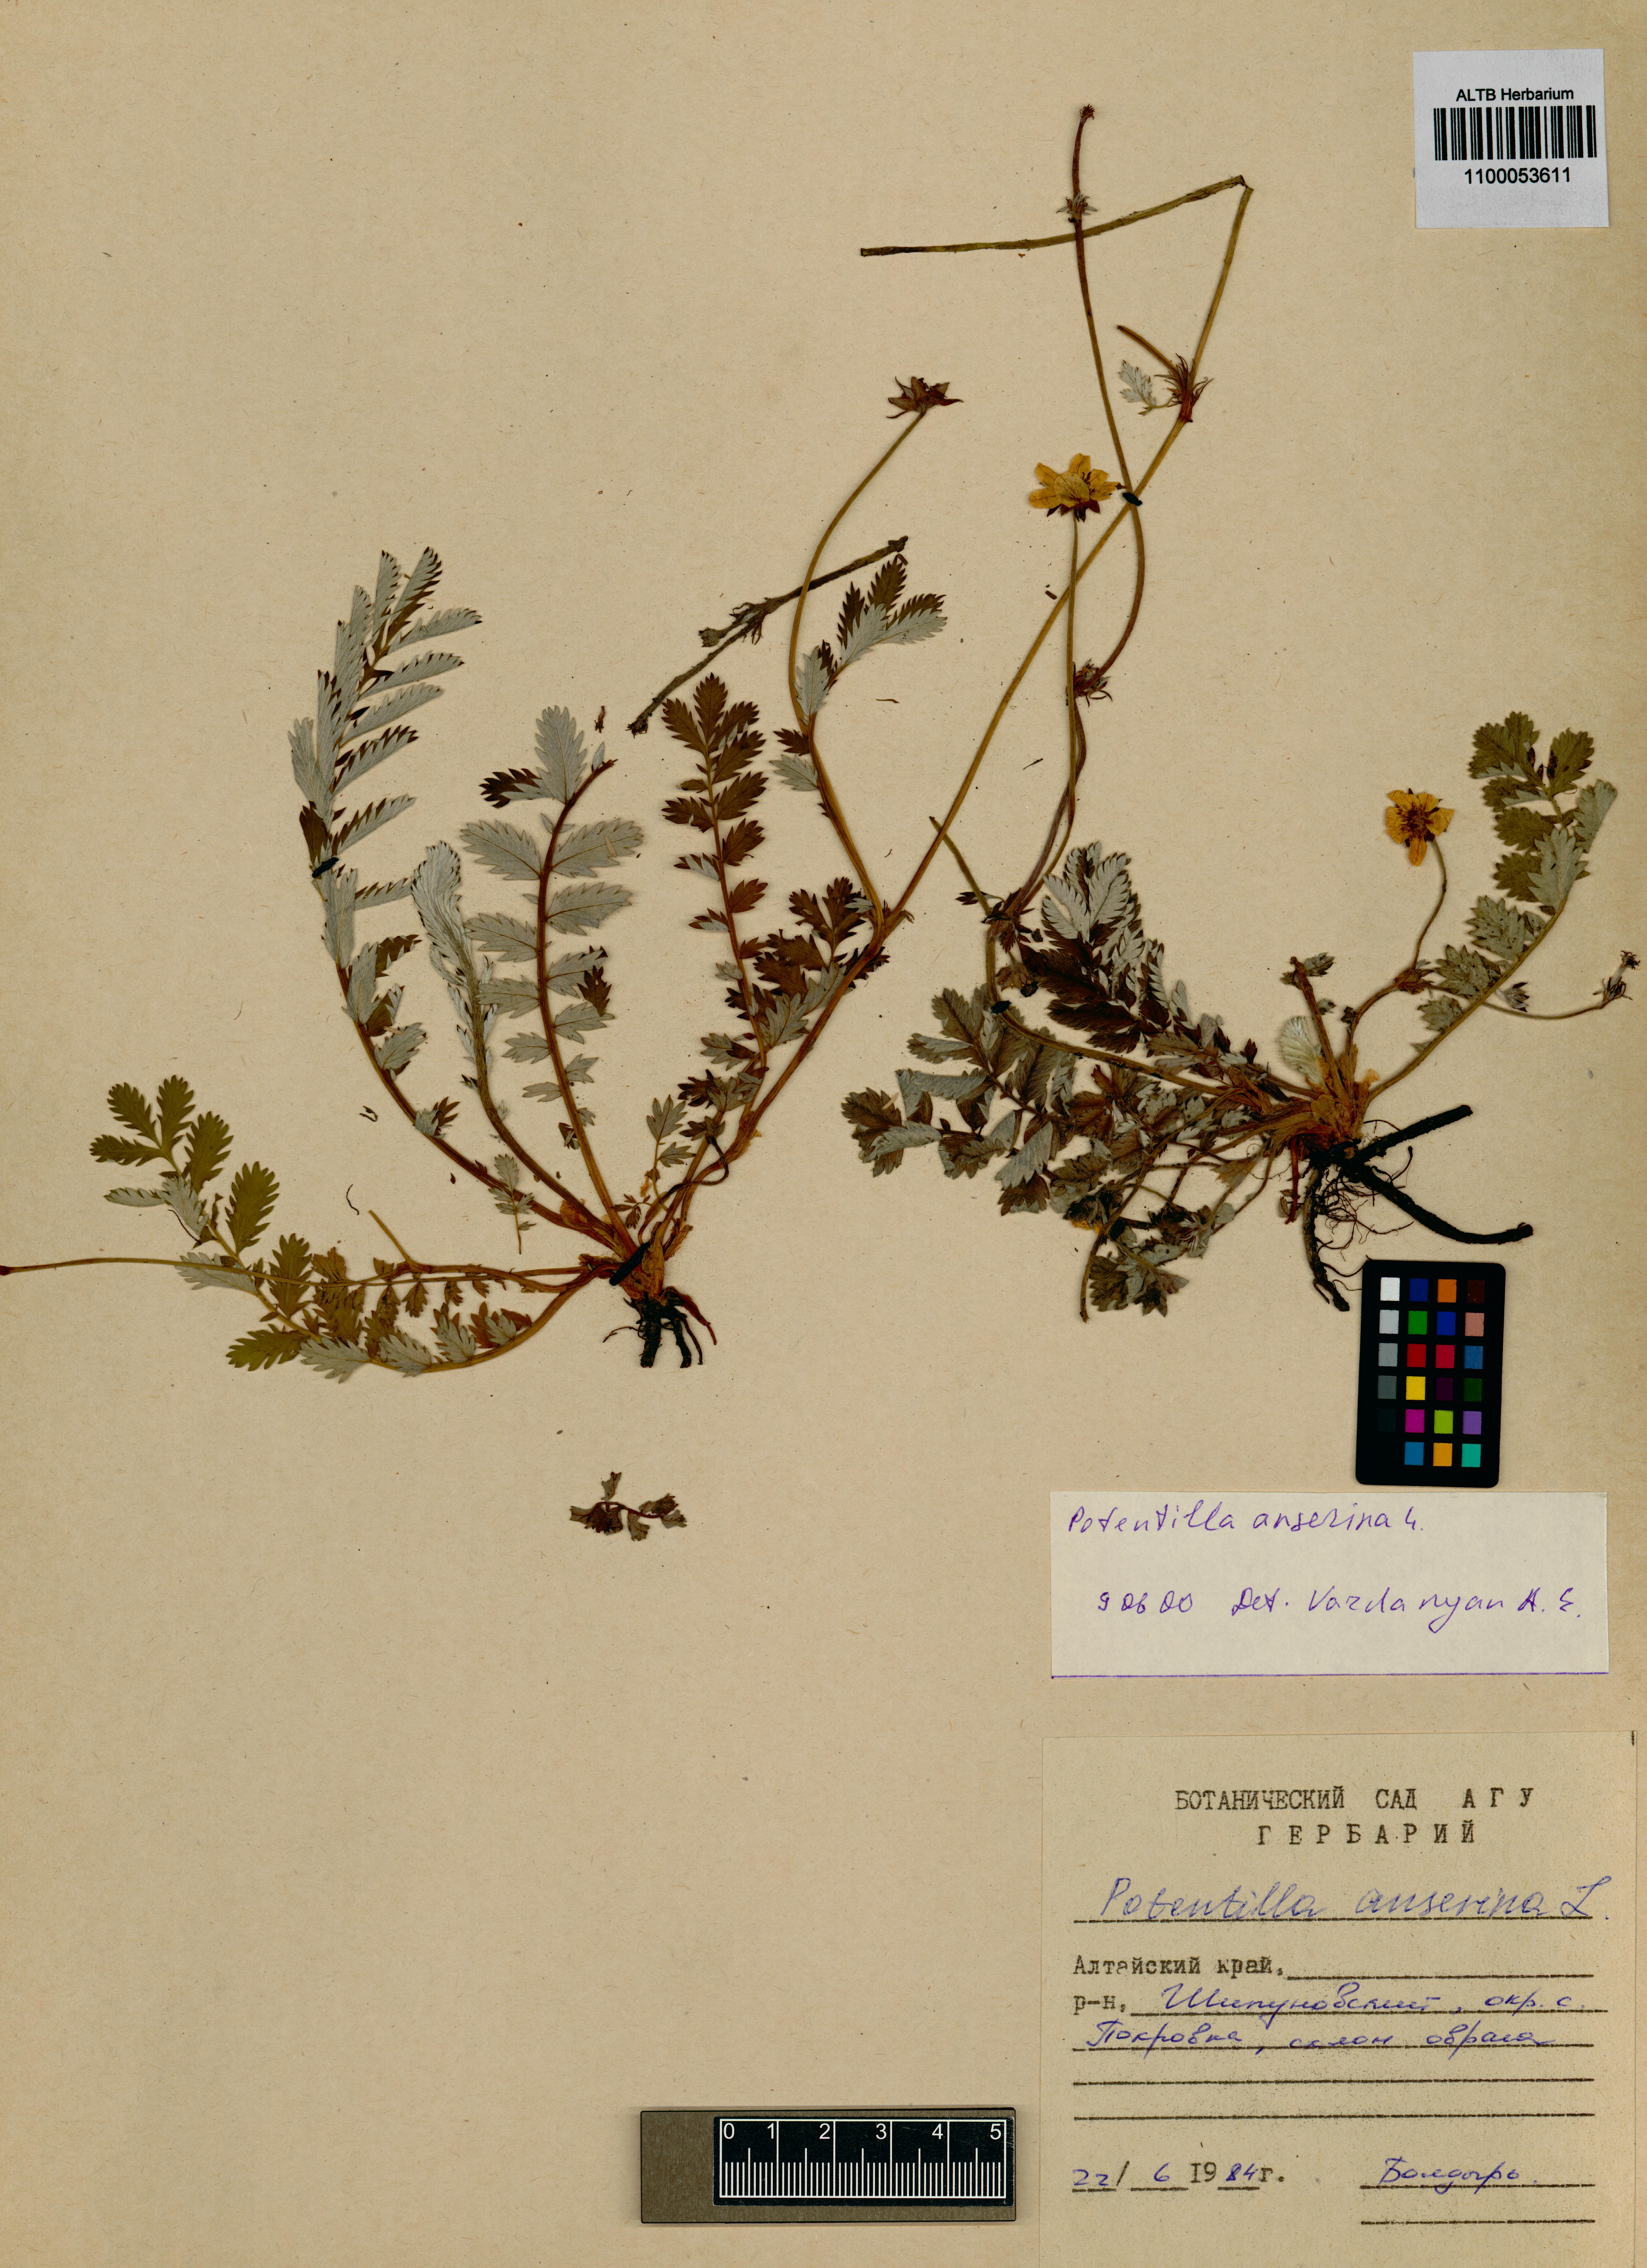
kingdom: Plantae
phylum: Tracheophyta
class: Magnoliopsida
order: Rosales
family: Rosaceae
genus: Argentina
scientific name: Argentina anserina
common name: Common silverweed
